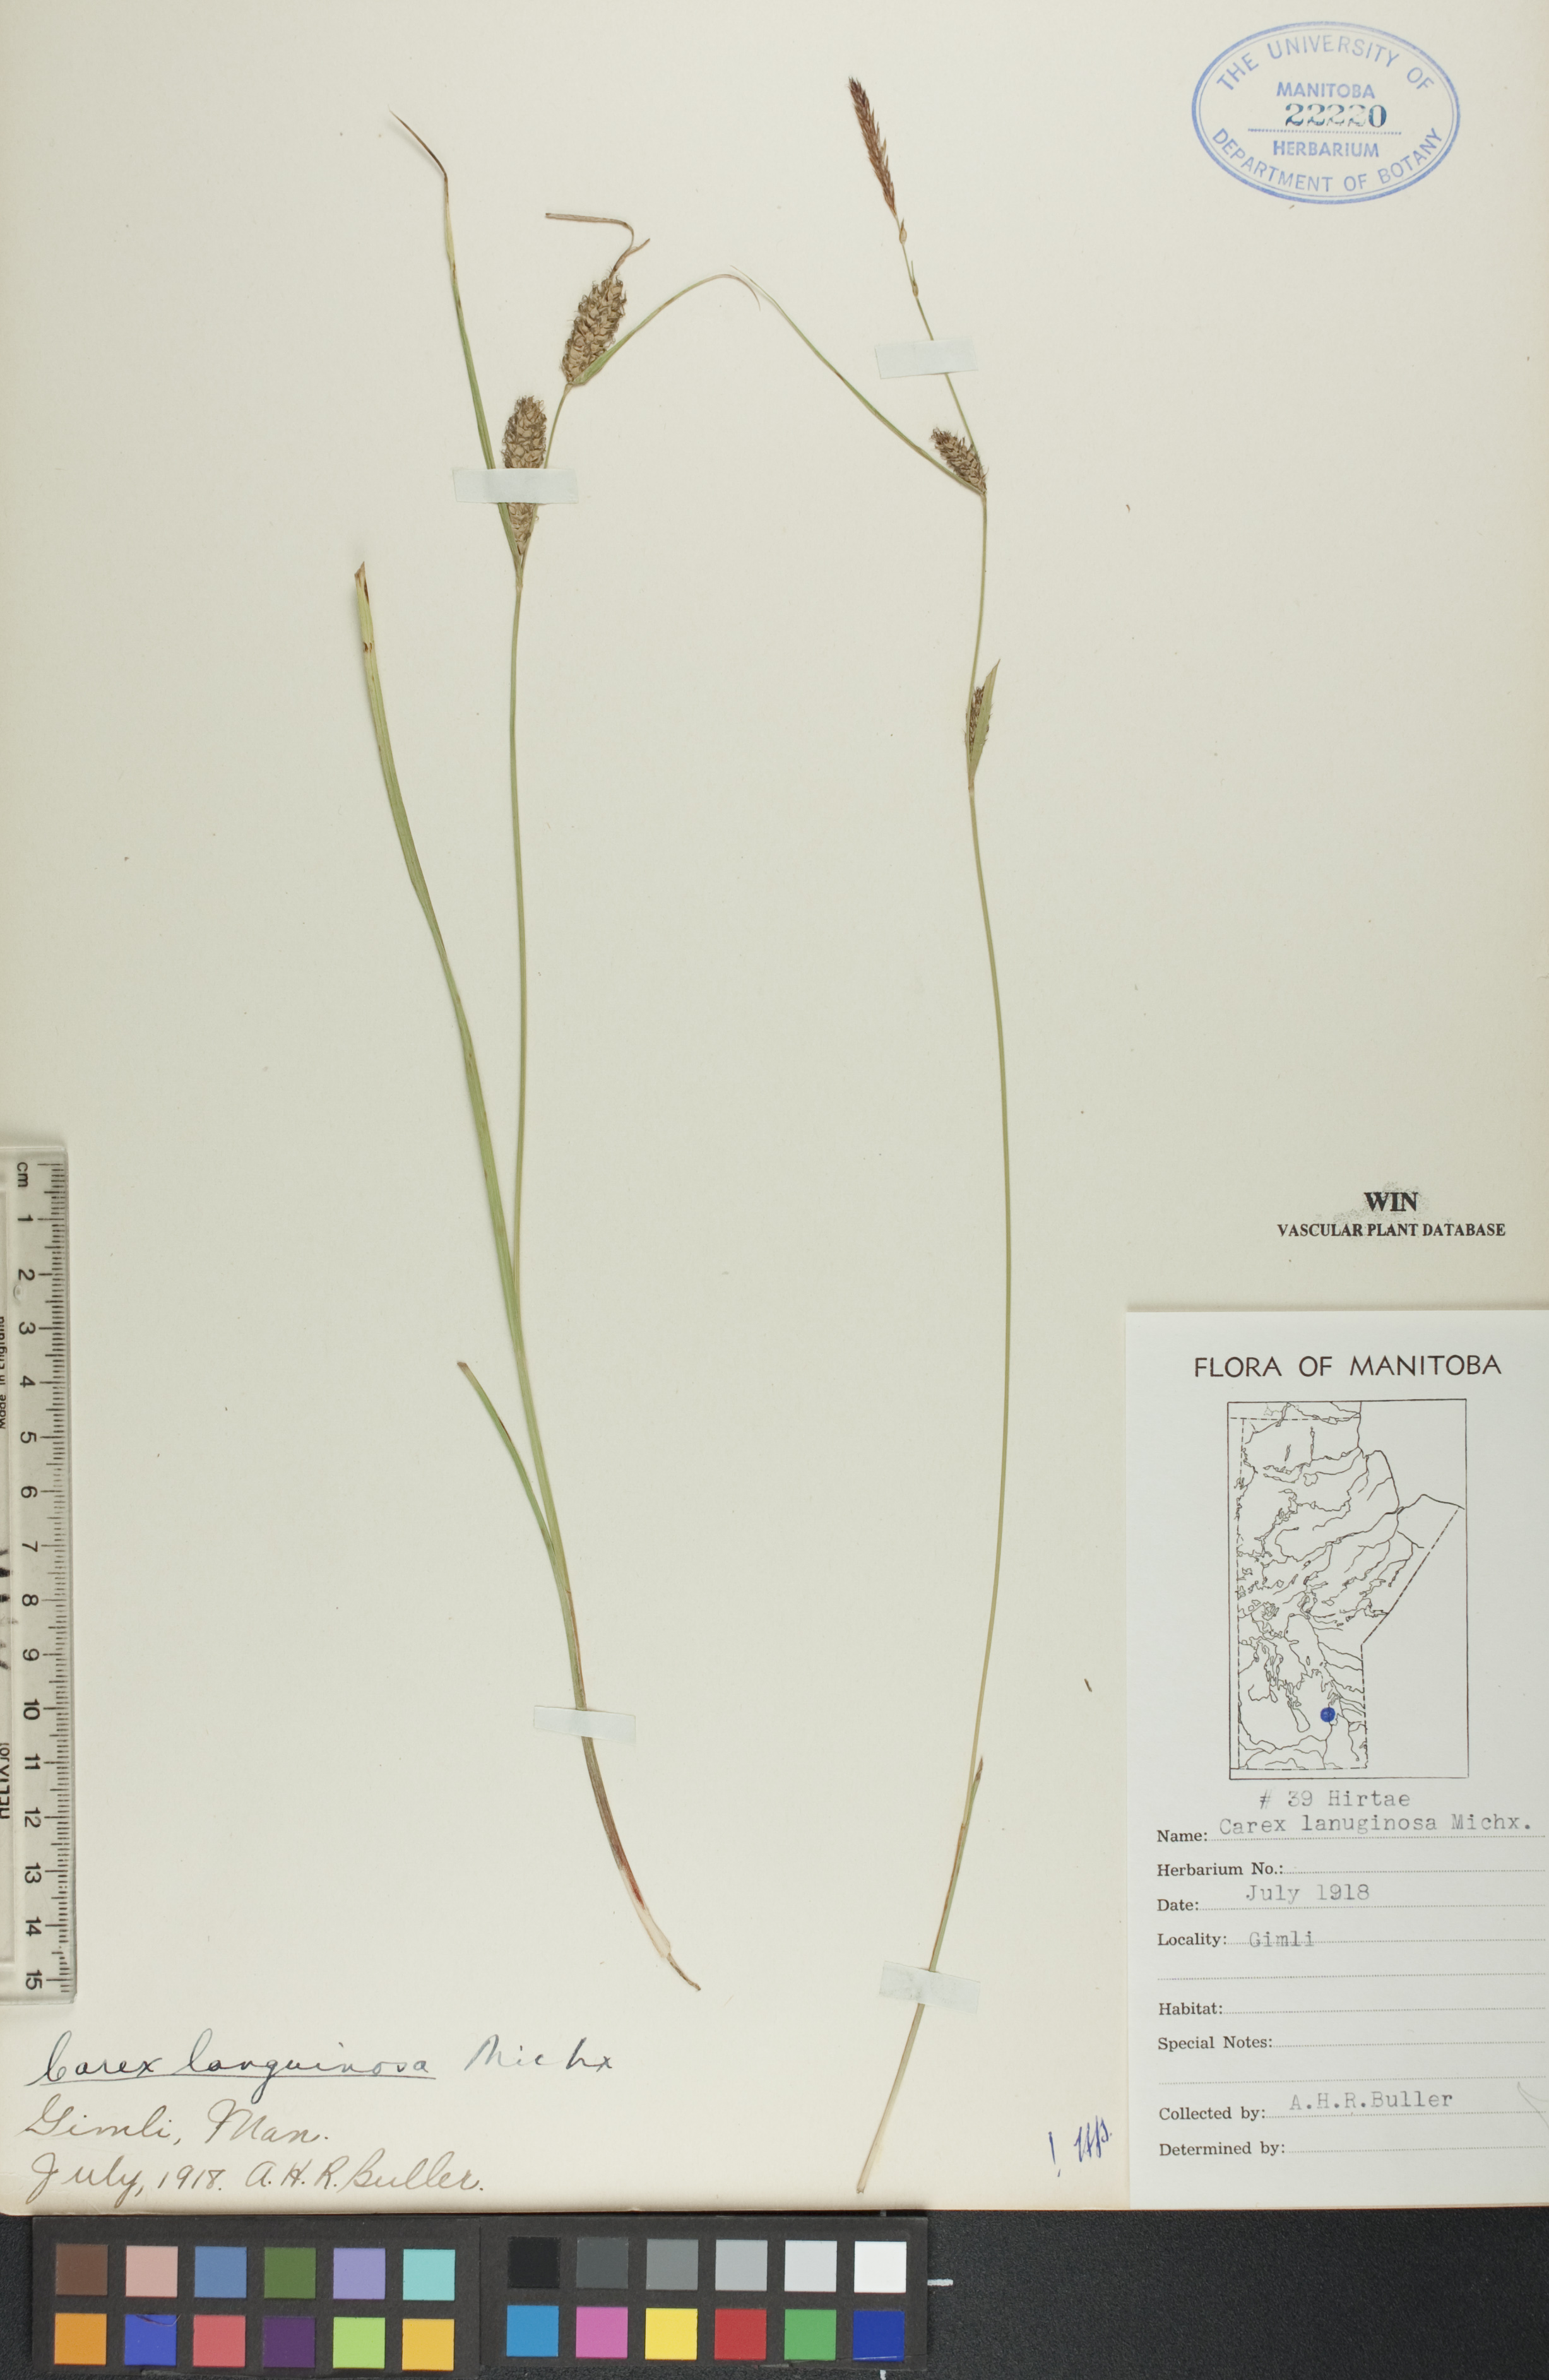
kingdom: Plantae
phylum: Tracheophyta
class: Liliopsida
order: Poales
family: Cyperaceae
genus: Carex
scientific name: Carex lasiocarpa
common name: Slender sedge
